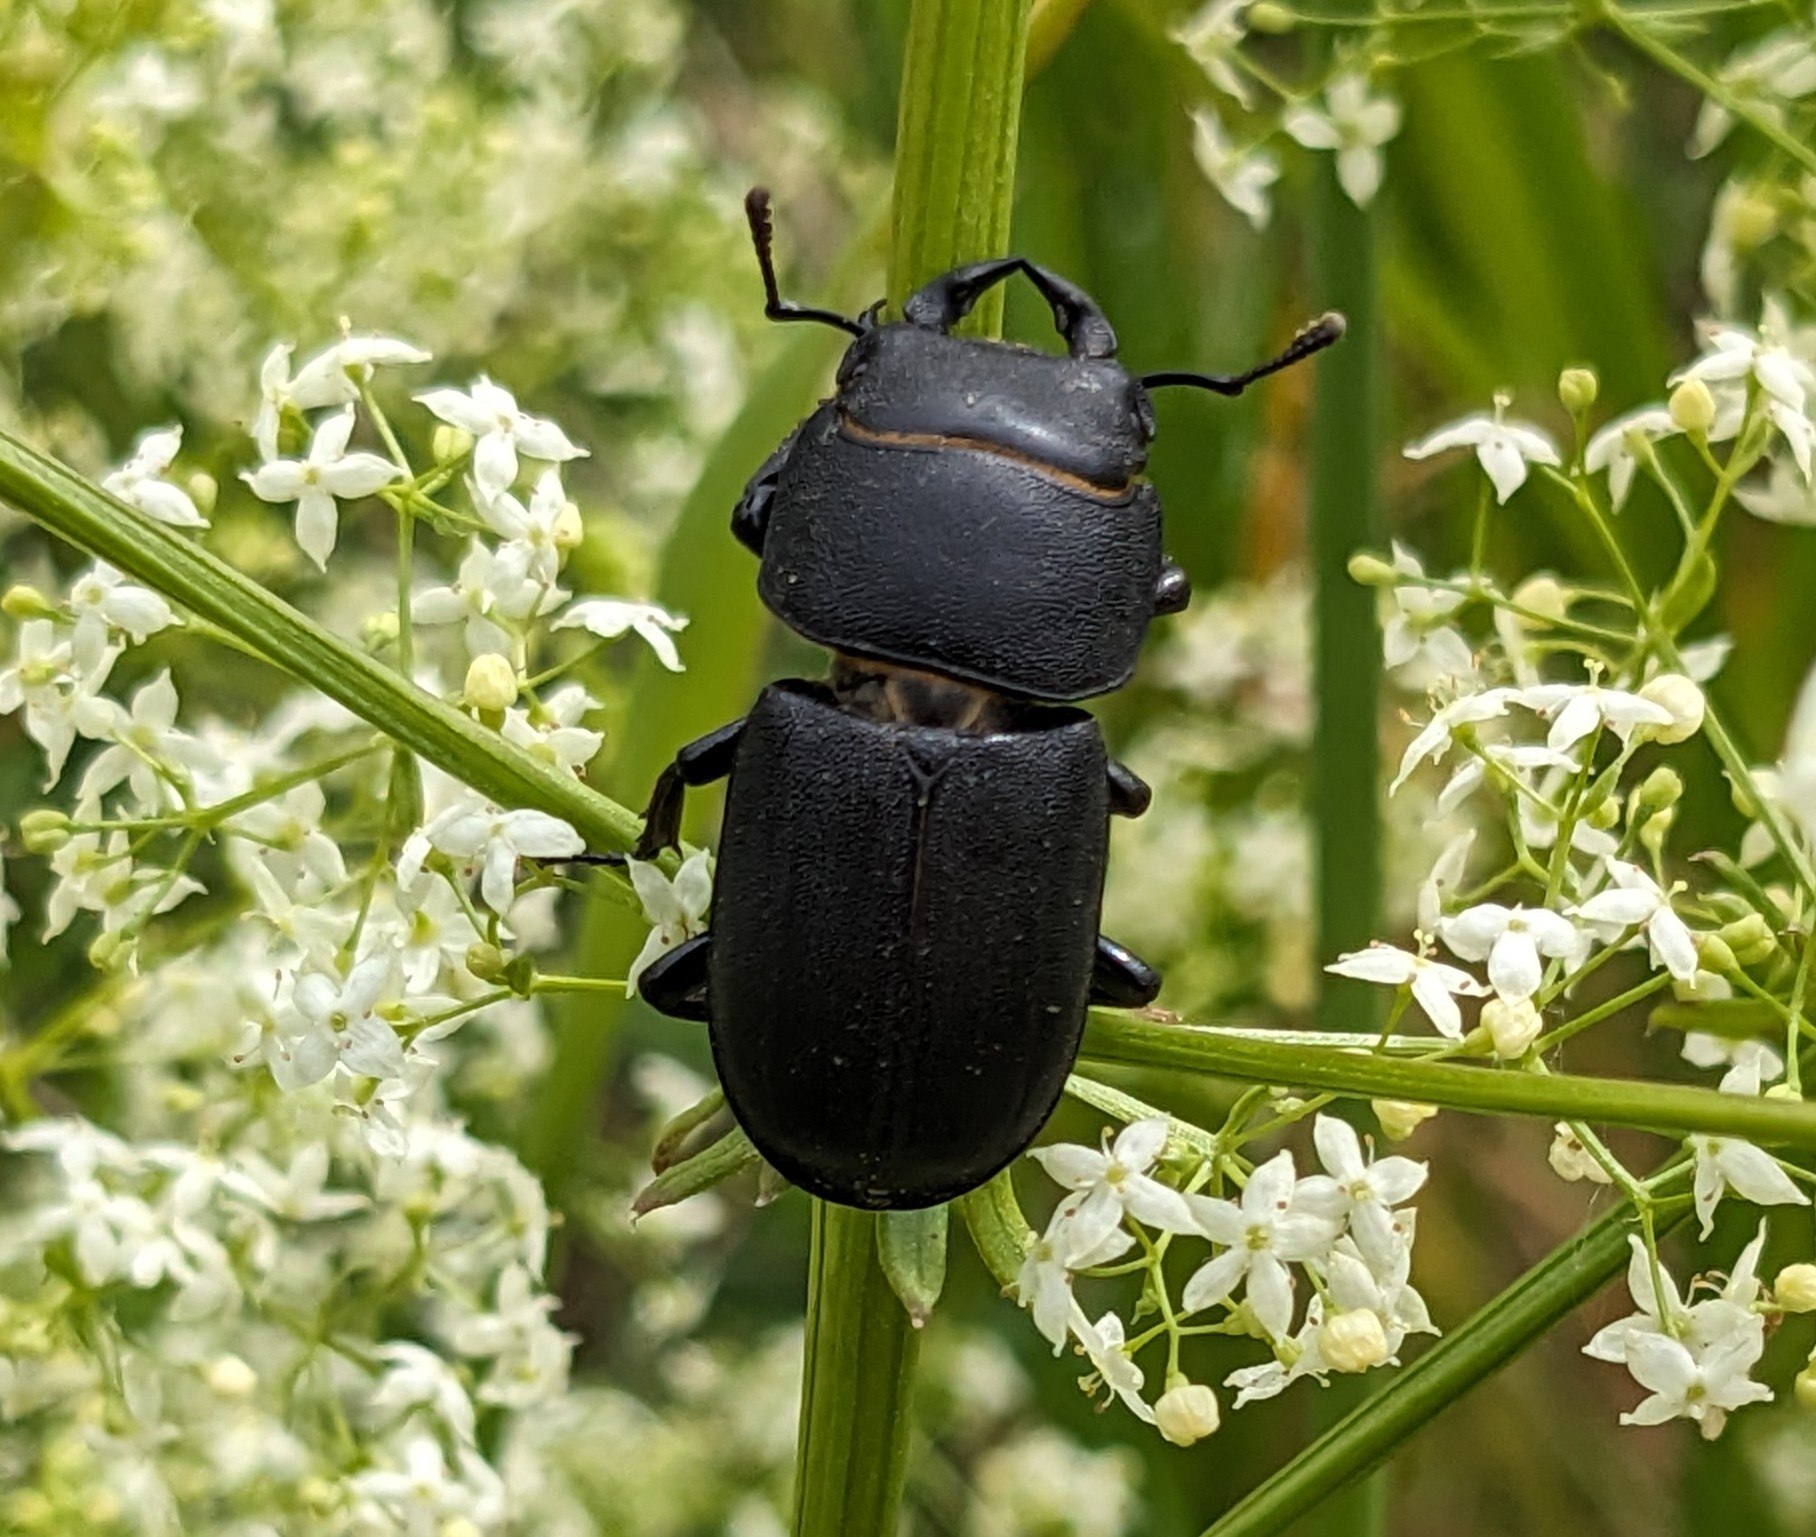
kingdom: Animalia
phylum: Arthropoda
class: Insecta
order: Coleoptera
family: Lucanidae
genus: Dorcus
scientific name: Dorcus parallelipipedus
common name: Bøghjort
